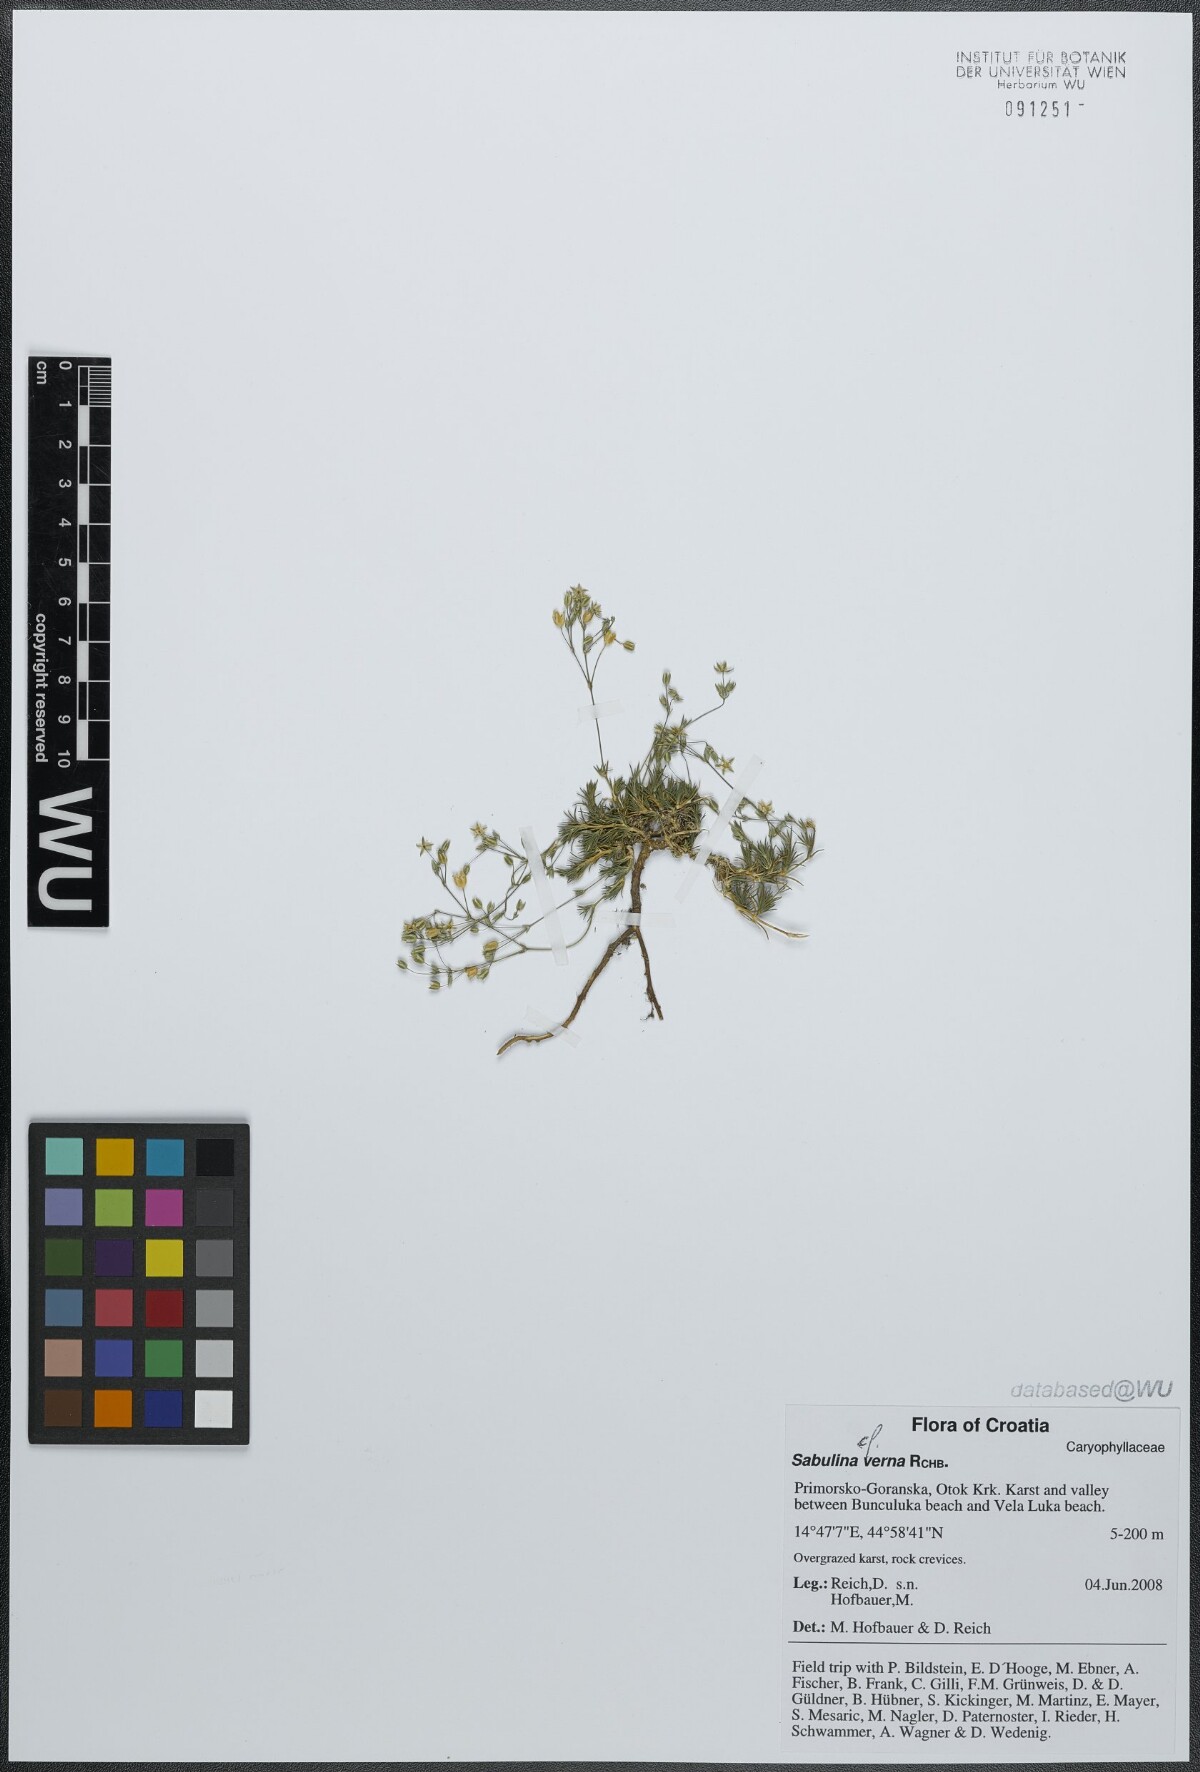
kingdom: Plantae
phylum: Tracheophyta
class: Magnoliopsida
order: Caryophyllales
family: Caryophyllaceae
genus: Sabulina
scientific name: Sabulina verna
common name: Spring sandwort
